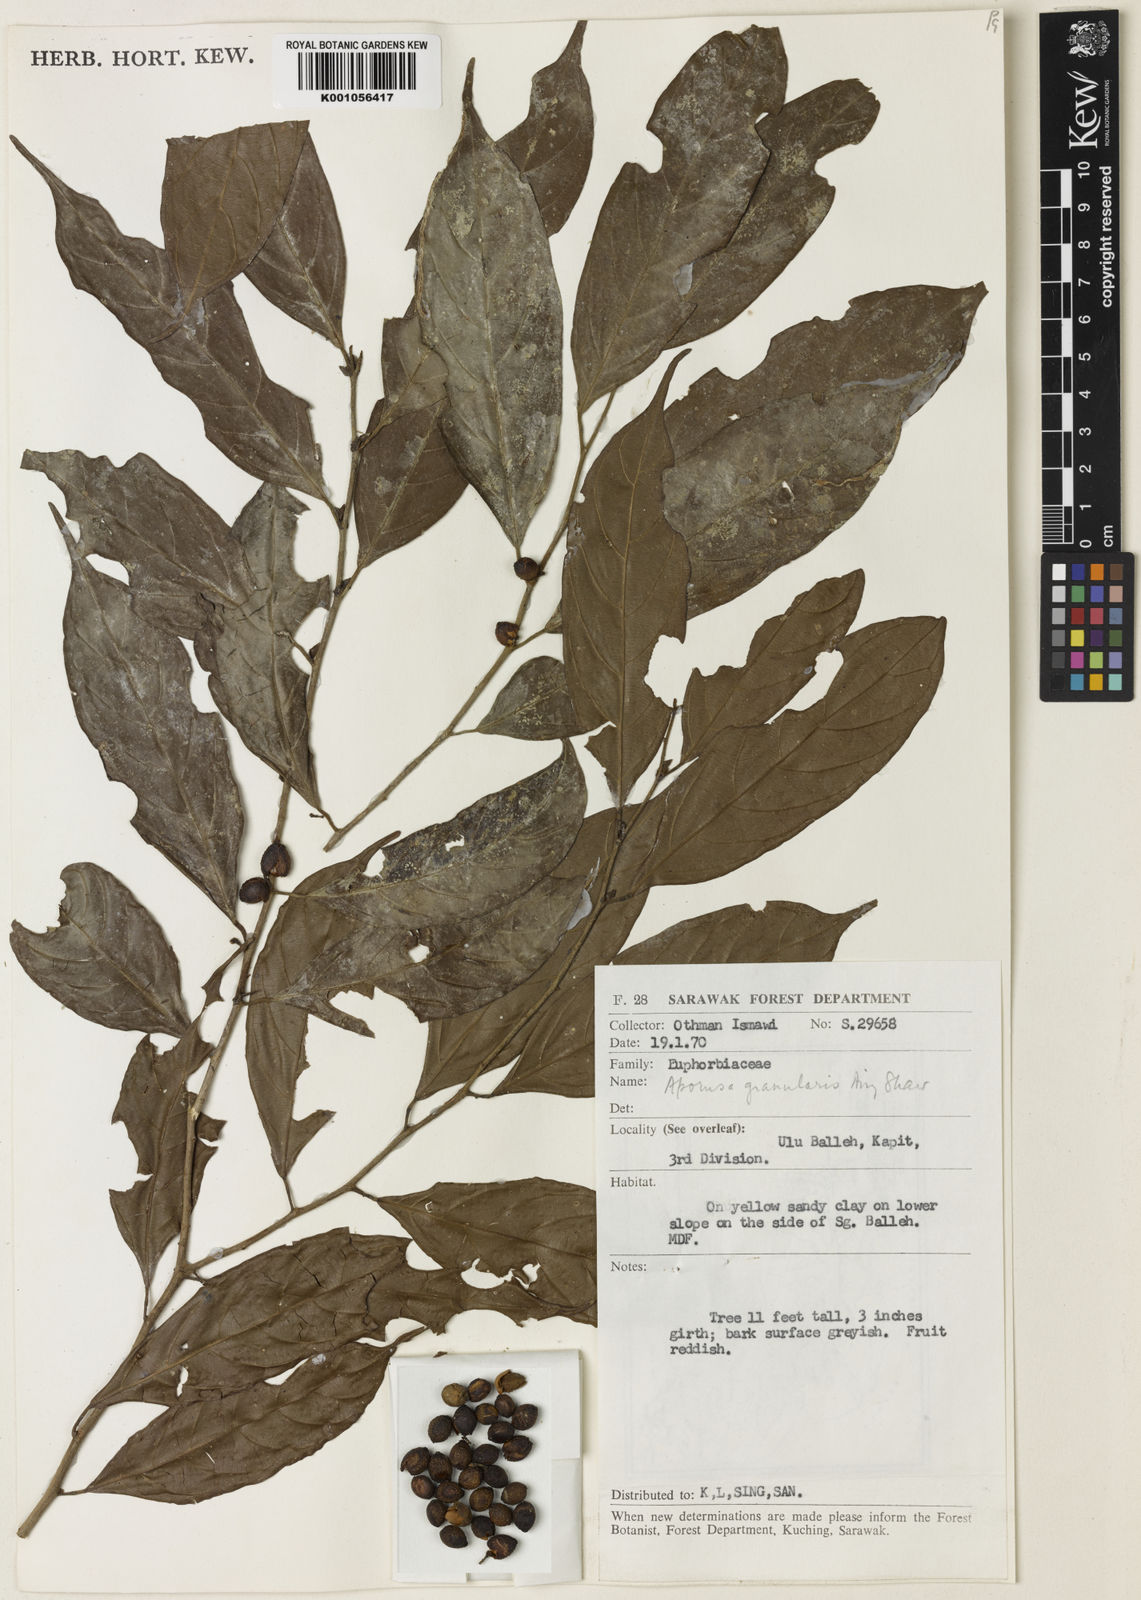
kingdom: Plantae
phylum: Tracheophyta
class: Magnoliopsida
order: Malpighiales
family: Phyllanthaceae
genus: Aporosa
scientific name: Aporosa granularis
